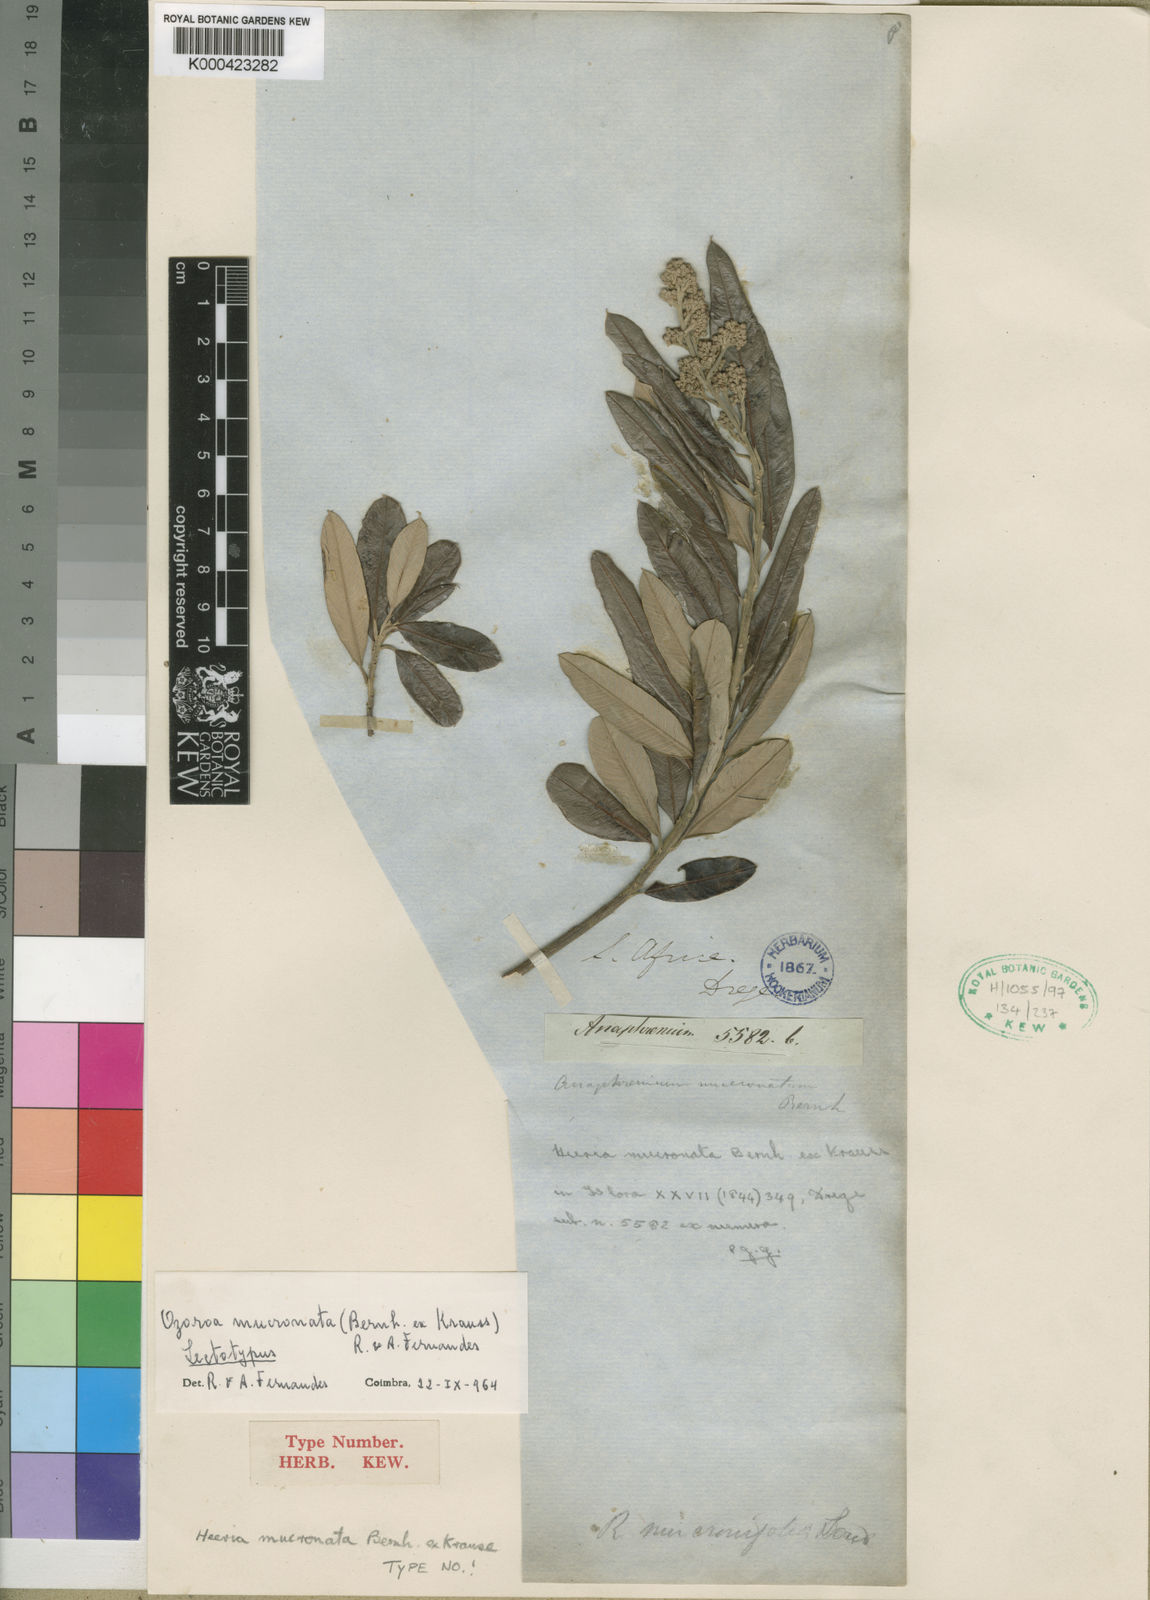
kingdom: Plantae
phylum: Tracheophyta
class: Magnoliopsida
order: Sapindales
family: Anacardiaceae
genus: Ozoroa
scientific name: Ozoroa mucronata
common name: Eastern cape resin tree
